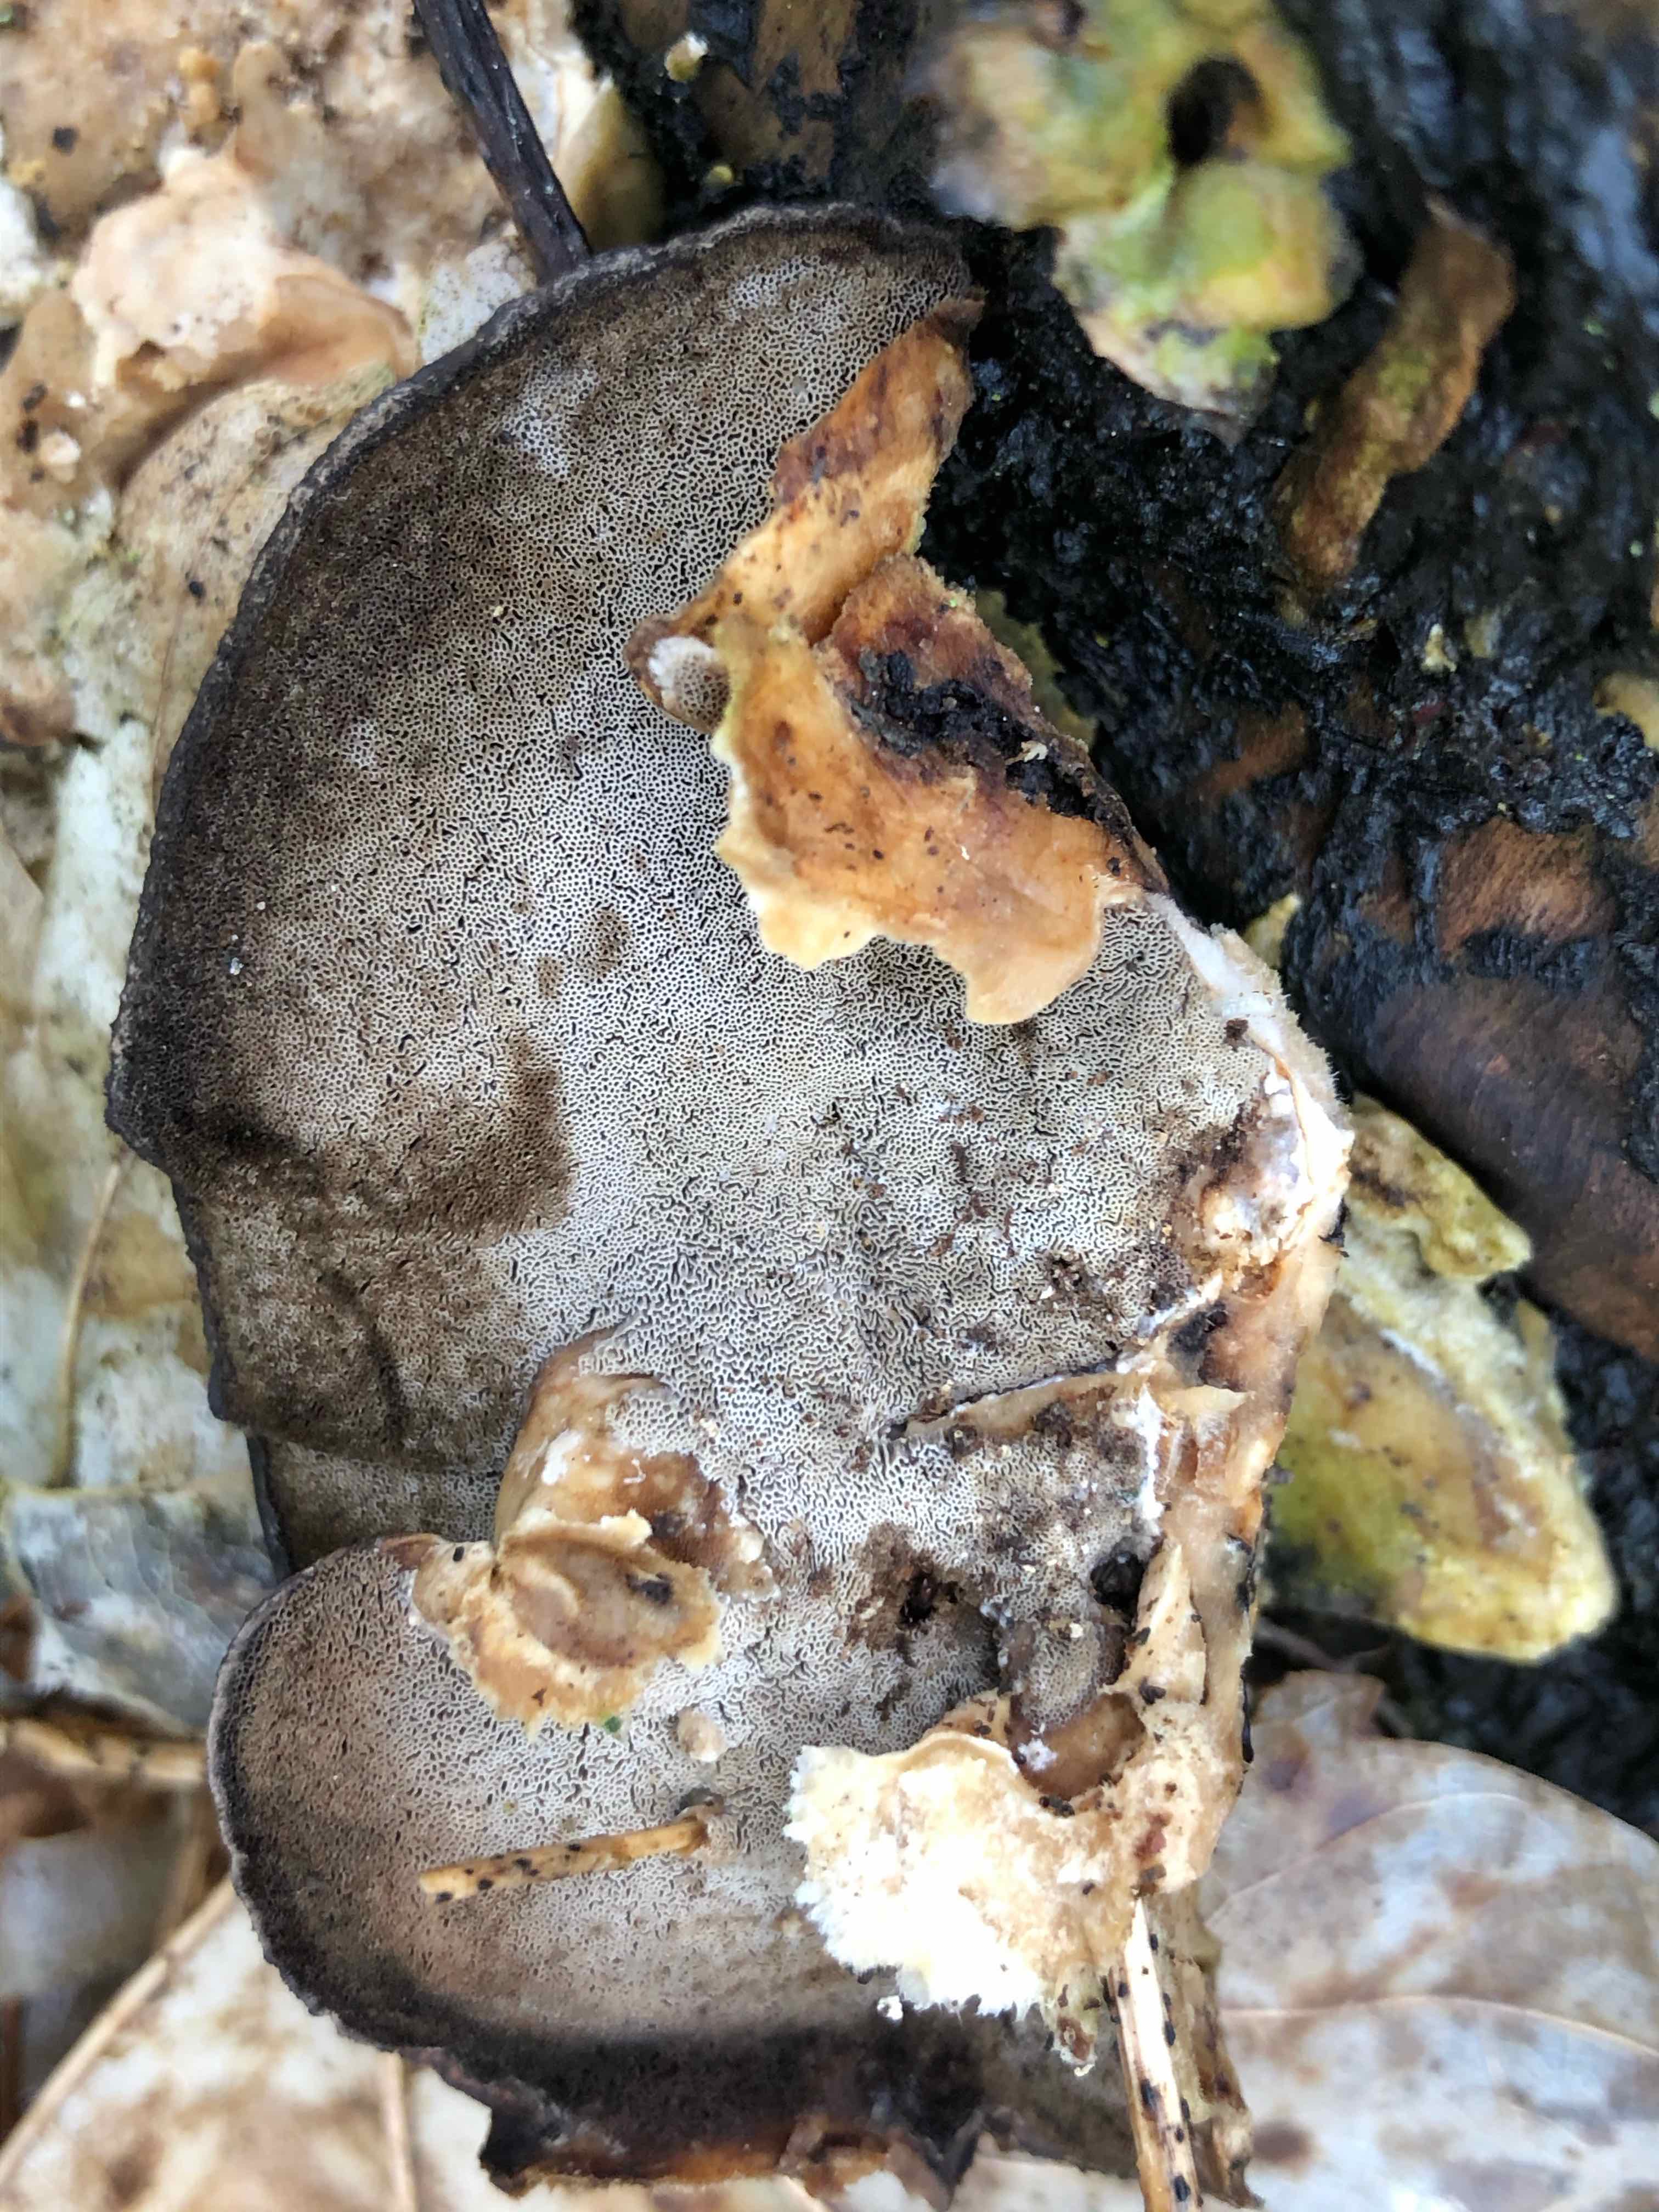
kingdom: Fungi
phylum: Basidiomycota
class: Agaricomycetes
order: Polyporales
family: Phanerochaetaceae
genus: Bjerkandera
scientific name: Bjerkandera adusta
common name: sveden sodporesvamp
